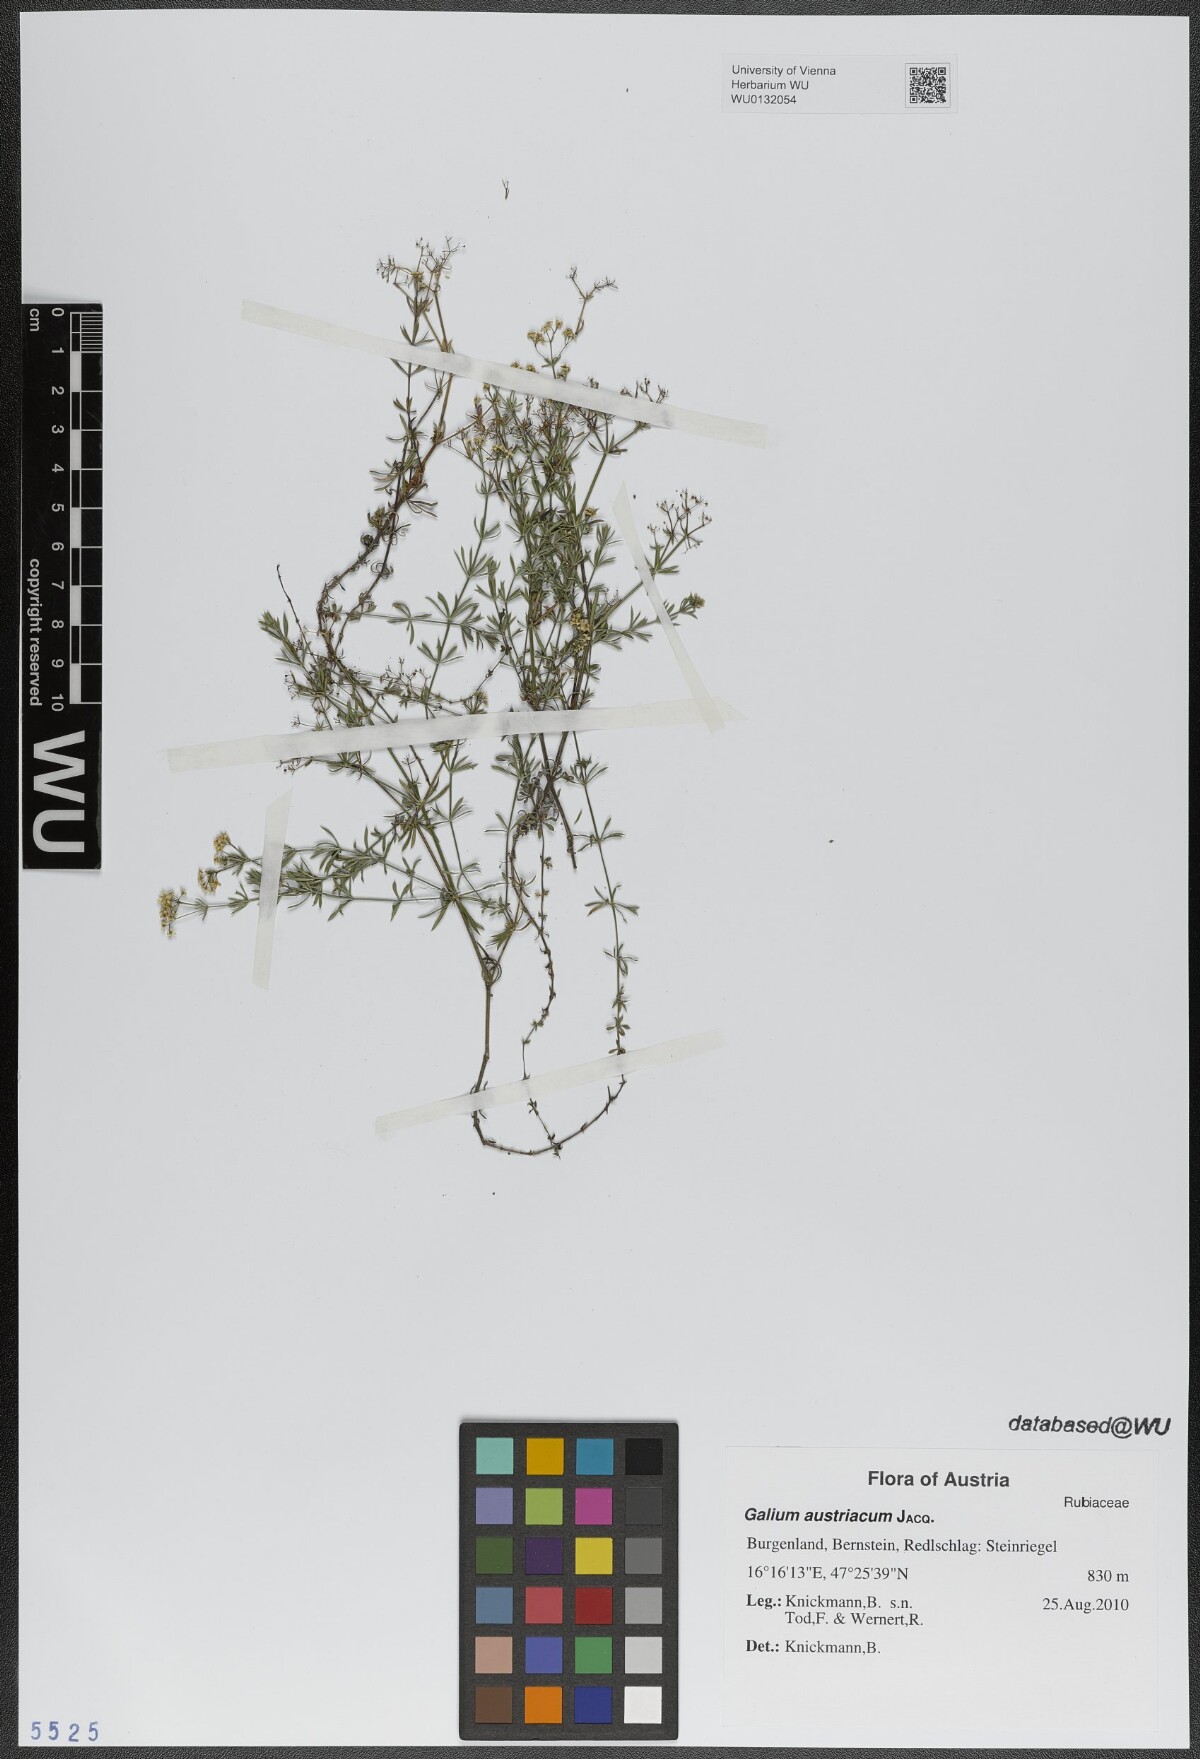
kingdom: Plantae
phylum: Tracheophyta
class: Magnoliopsida
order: Gentianales
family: Rubiaceae
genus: Galium
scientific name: Galium austriacum
